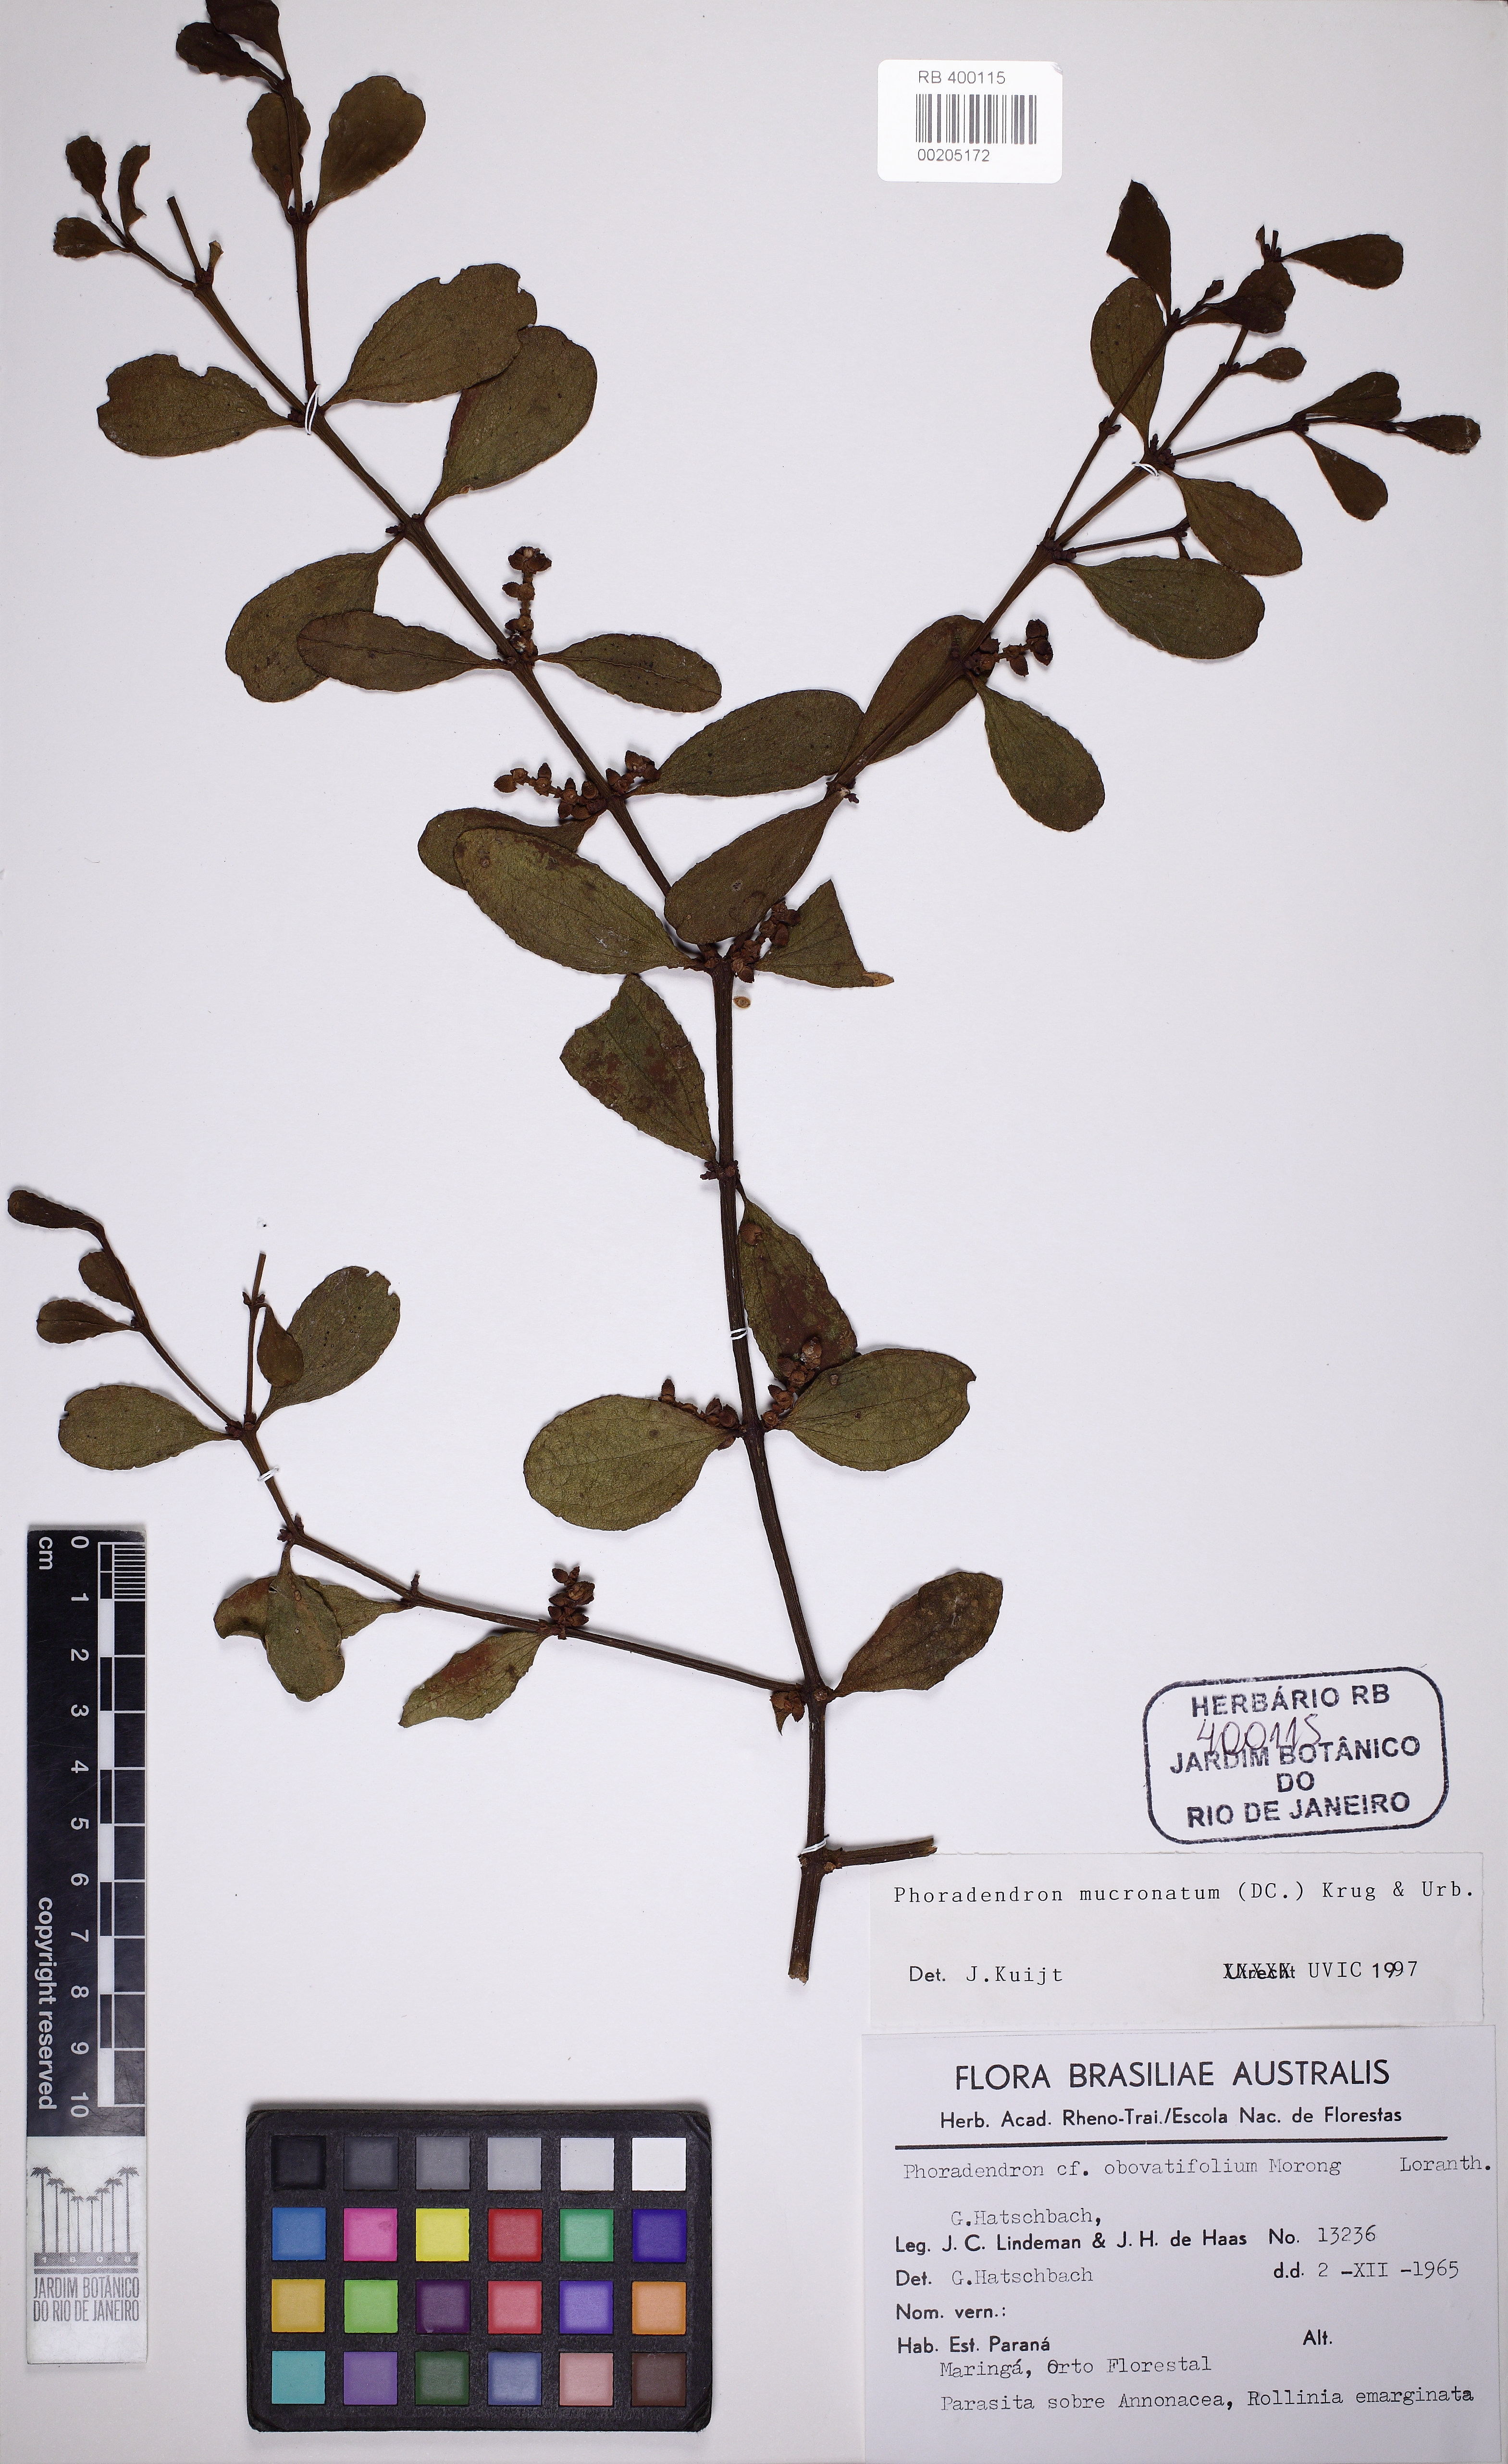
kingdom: Plantae
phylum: Tracheophyta
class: Magnoliopsida
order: Santalales
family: Viscaceae
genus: Phoradendron
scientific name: Phoradendron mucronatum
